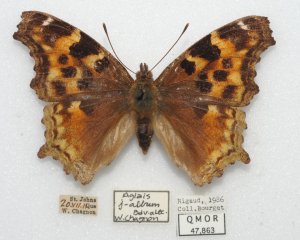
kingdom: Animalia
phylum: Arthropoda
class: Insecta
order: Lepidoptera
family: Nymphalidae
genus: Polygonia
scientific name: Polygonia vaualbum
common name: Compton Tortoiseshell
